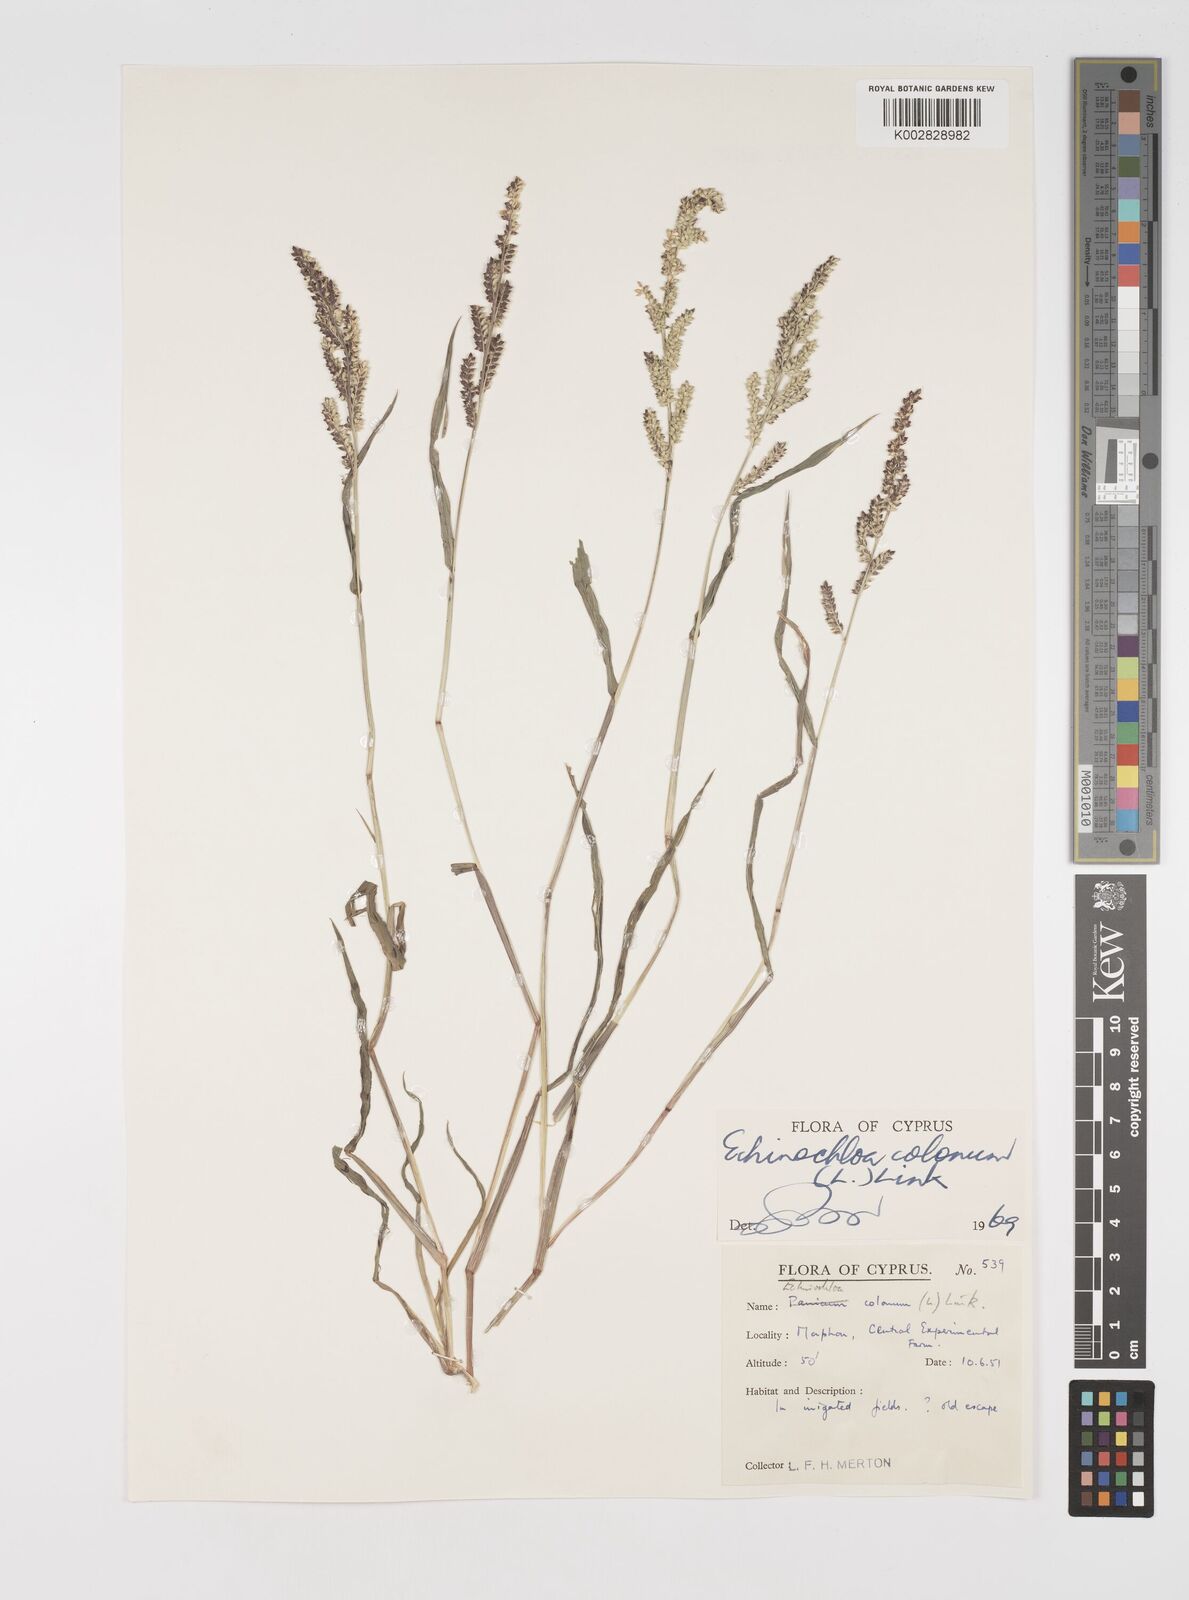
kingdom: Plantae
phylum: Tracheophyta
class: Liliopsida
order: Poales
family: Poaceae
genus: Echinochloa
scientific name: Echinochloa colonum
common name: Jungle rice
